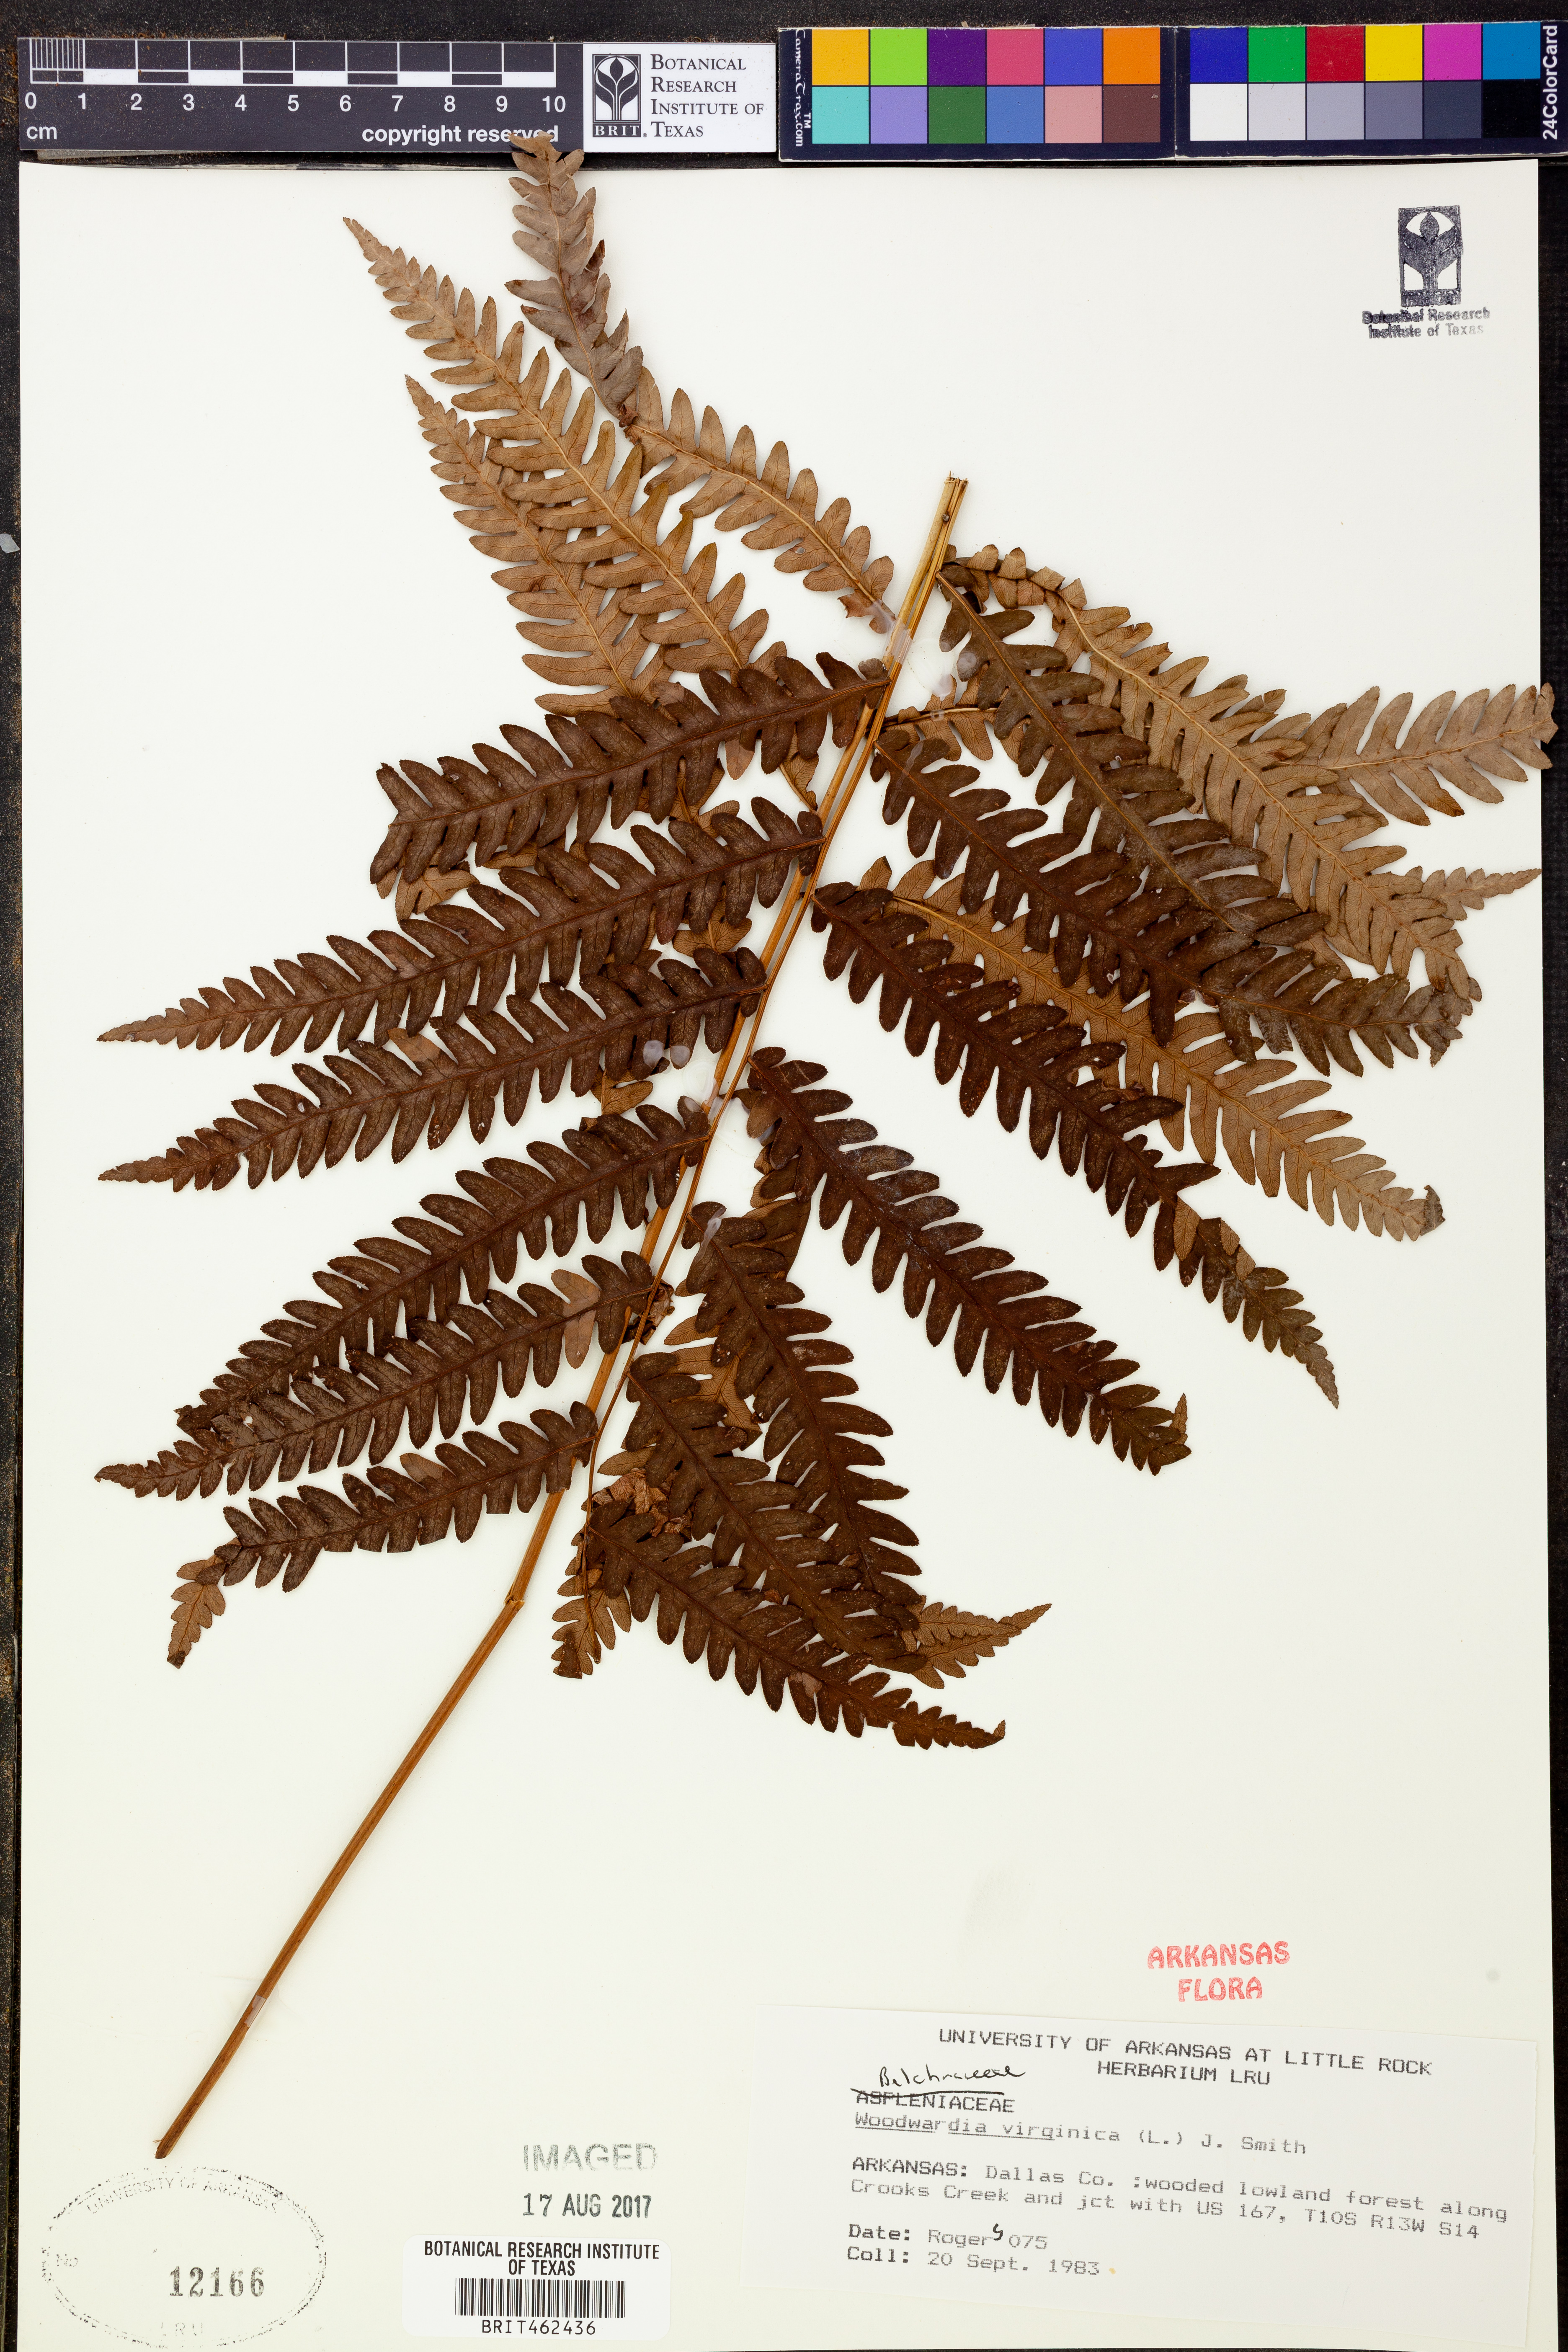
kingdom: Plantae
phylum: Tracheophyta
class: Polypodiopsida
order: Polypodiales
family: Blechnaceae
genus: Anchistea
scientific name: Anchistea virginica
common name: Virginia chain fern
